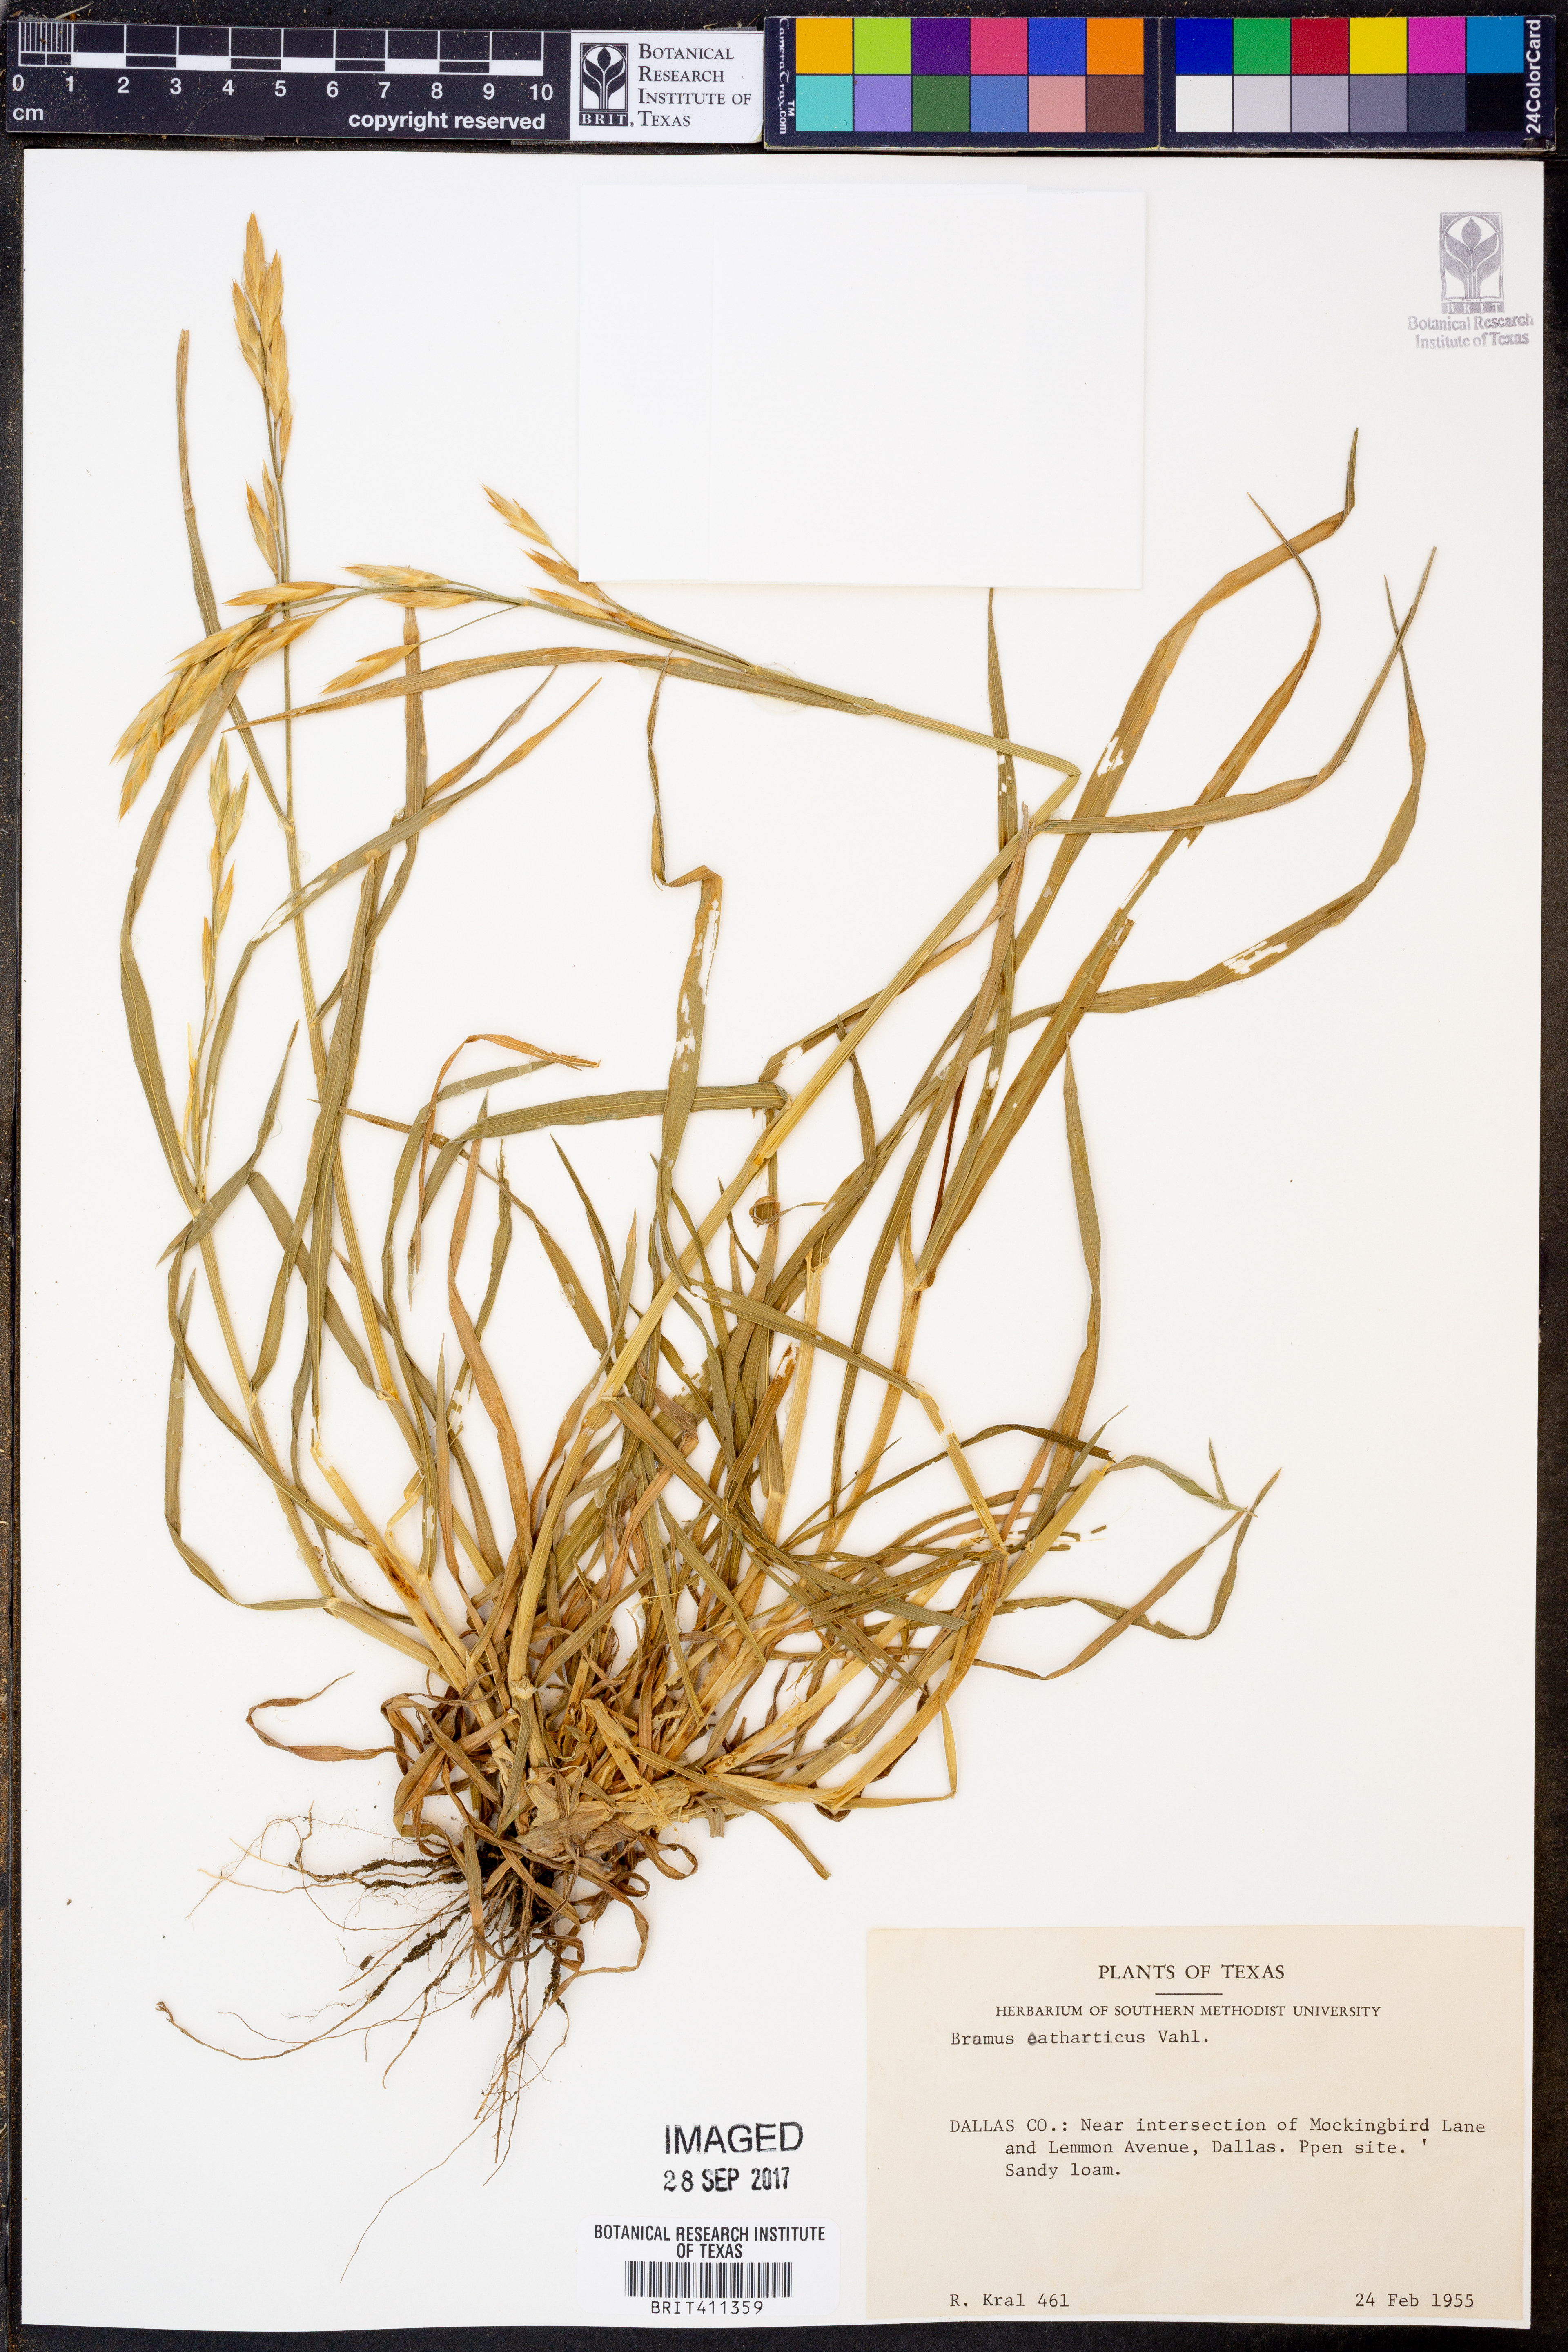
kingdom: Plantae
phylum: Tracheophyta
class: Liliopsida
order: Poales
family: Poaceae
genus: Bromus
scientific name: Bromus catharticus
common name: Rescuegrass
